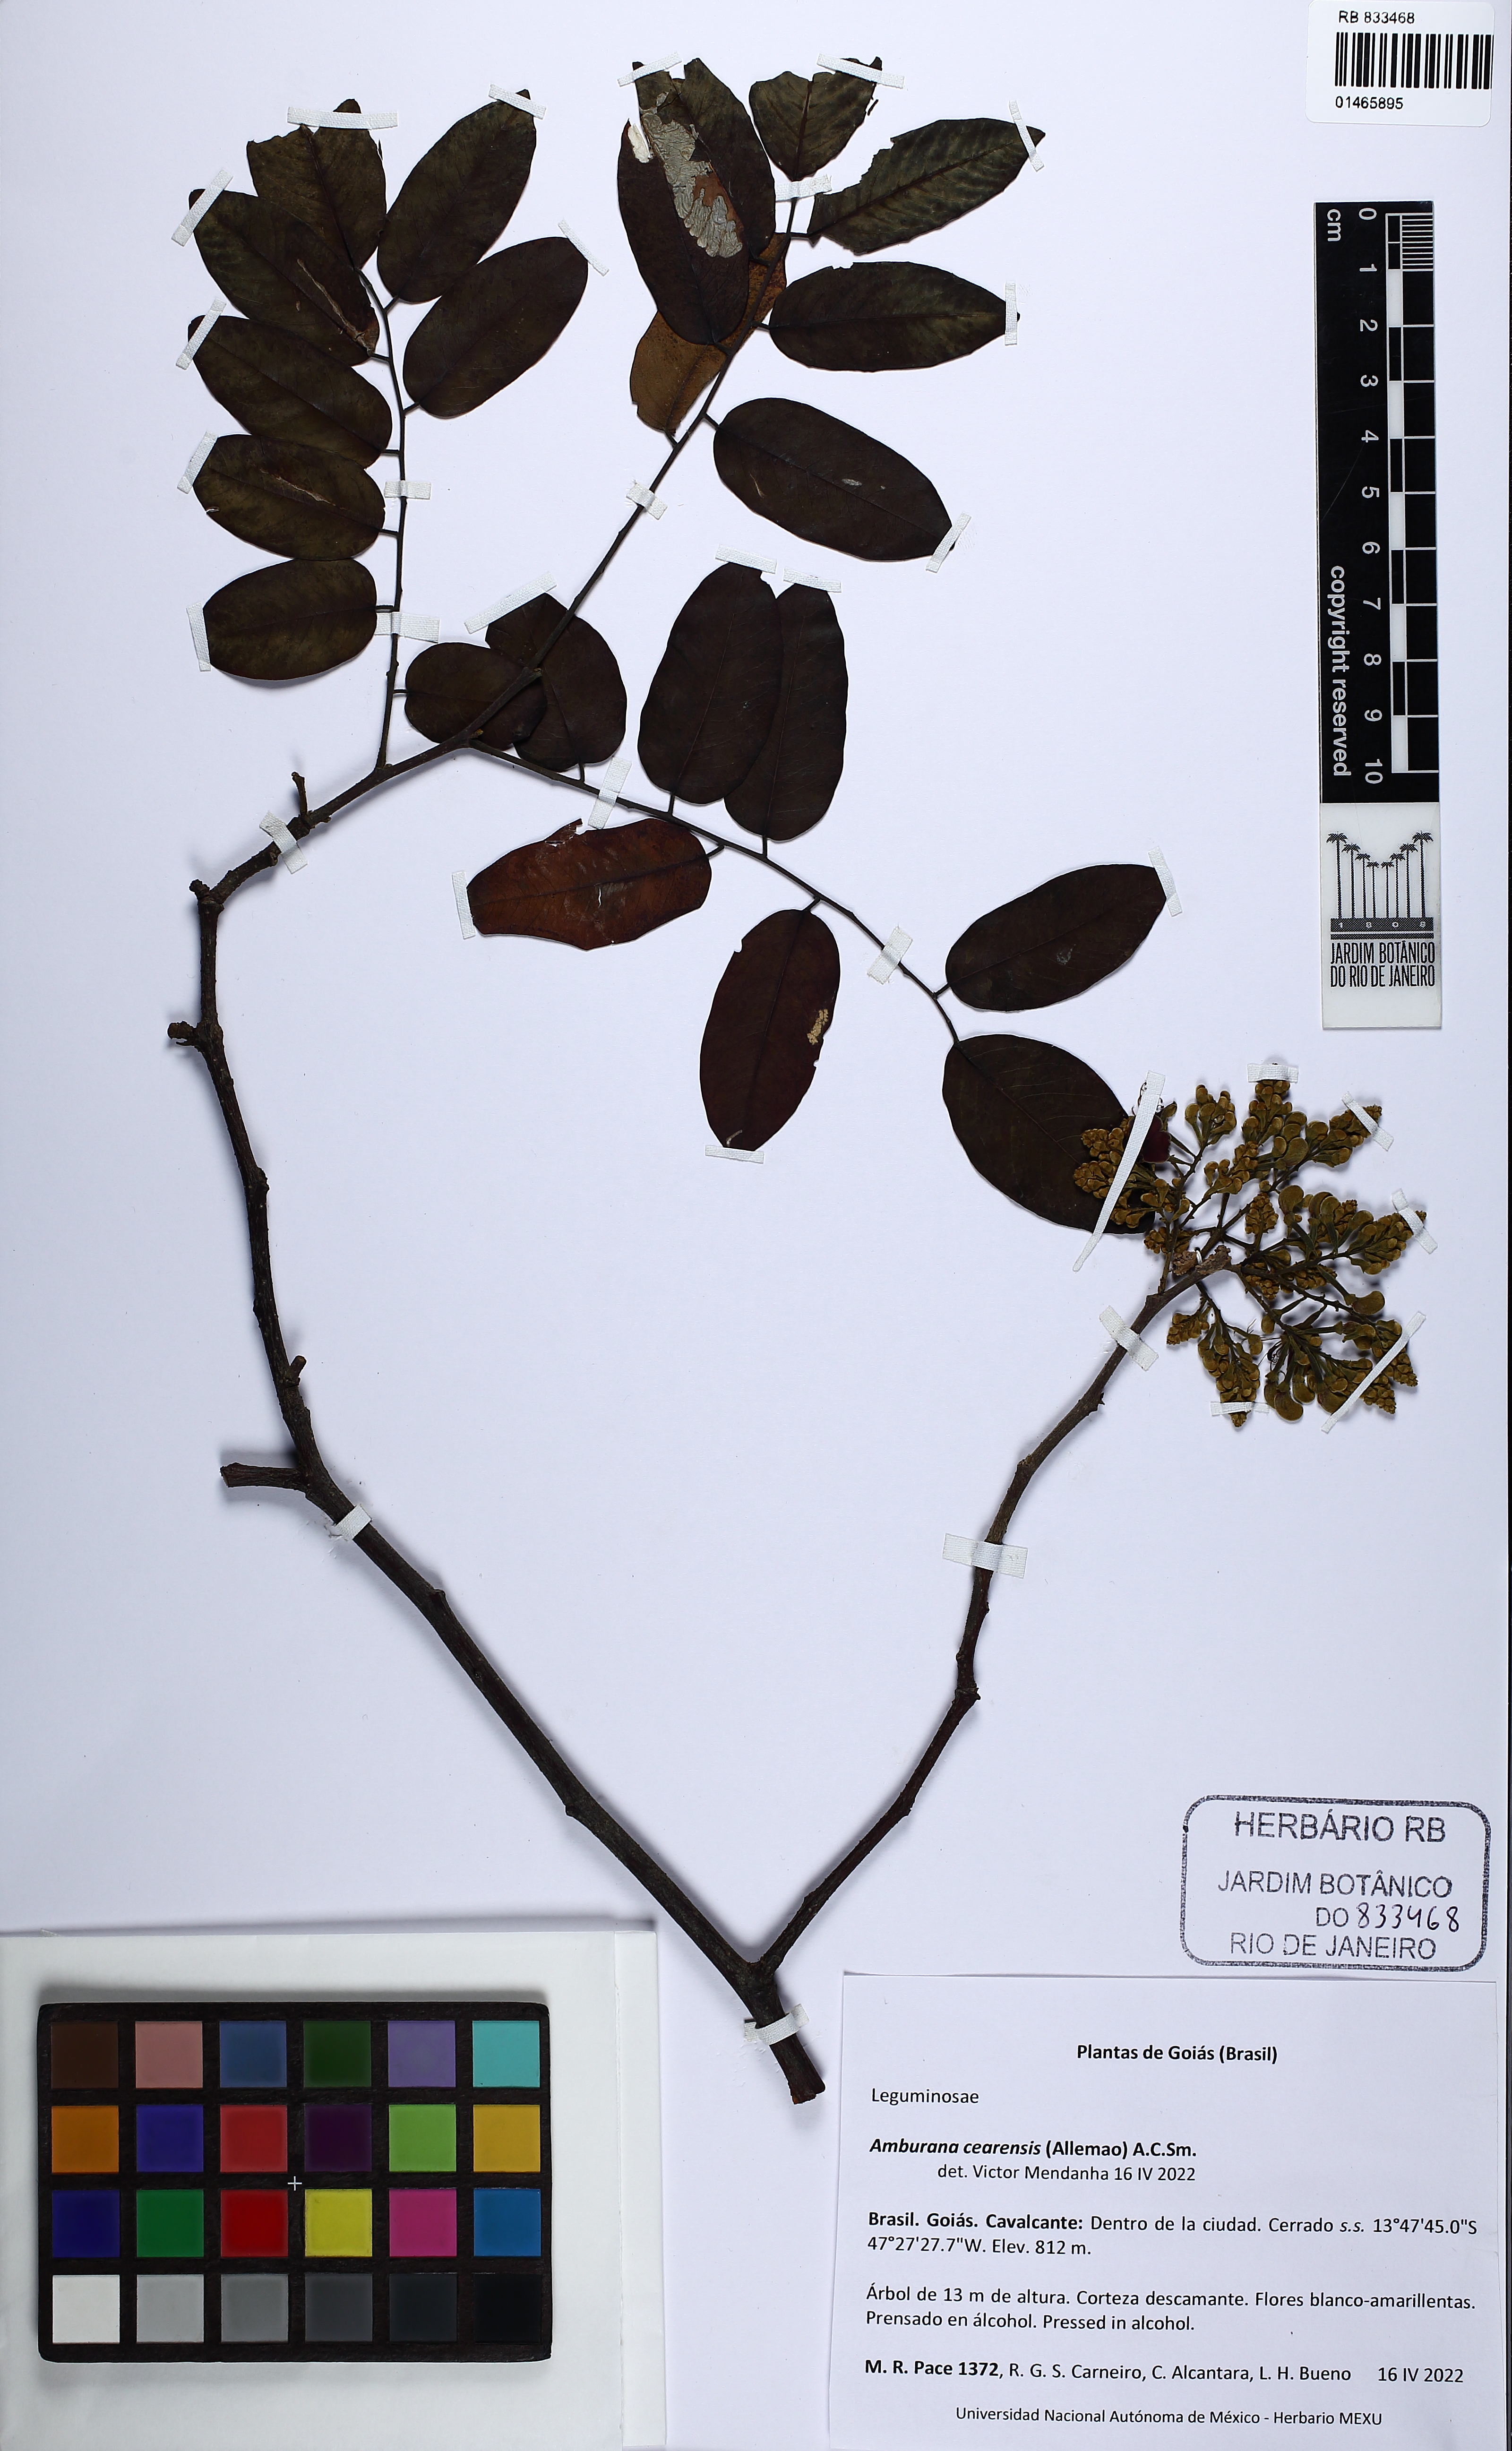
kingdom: Plantae
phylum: Tracheophyta
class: Magnoliopsida
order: Fabales
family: Fabaceae
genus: Amburana
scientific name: Amburana cearensis
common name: Cerejeira
